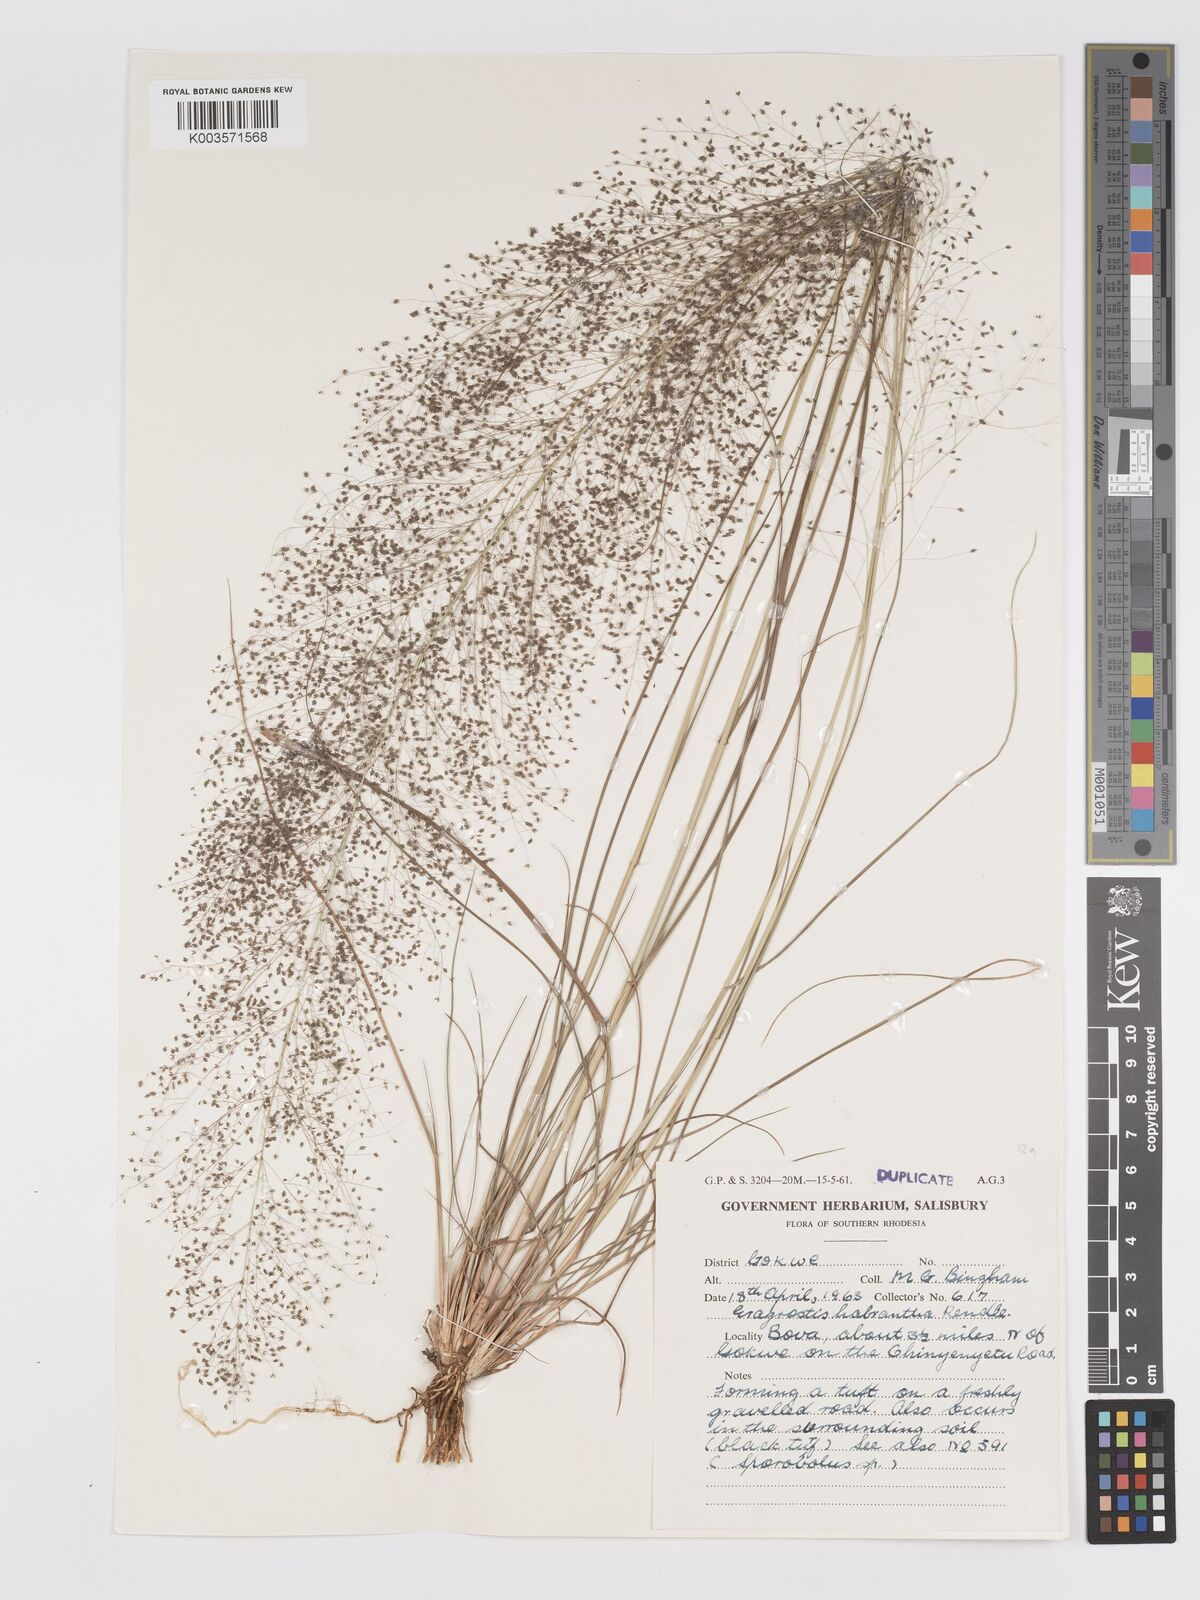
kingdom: Plantae
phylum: Tracheophyta
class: Liliopsida
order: Poales
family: Poaceae
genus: Eragrostis
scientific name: Eragrostis habrantha
